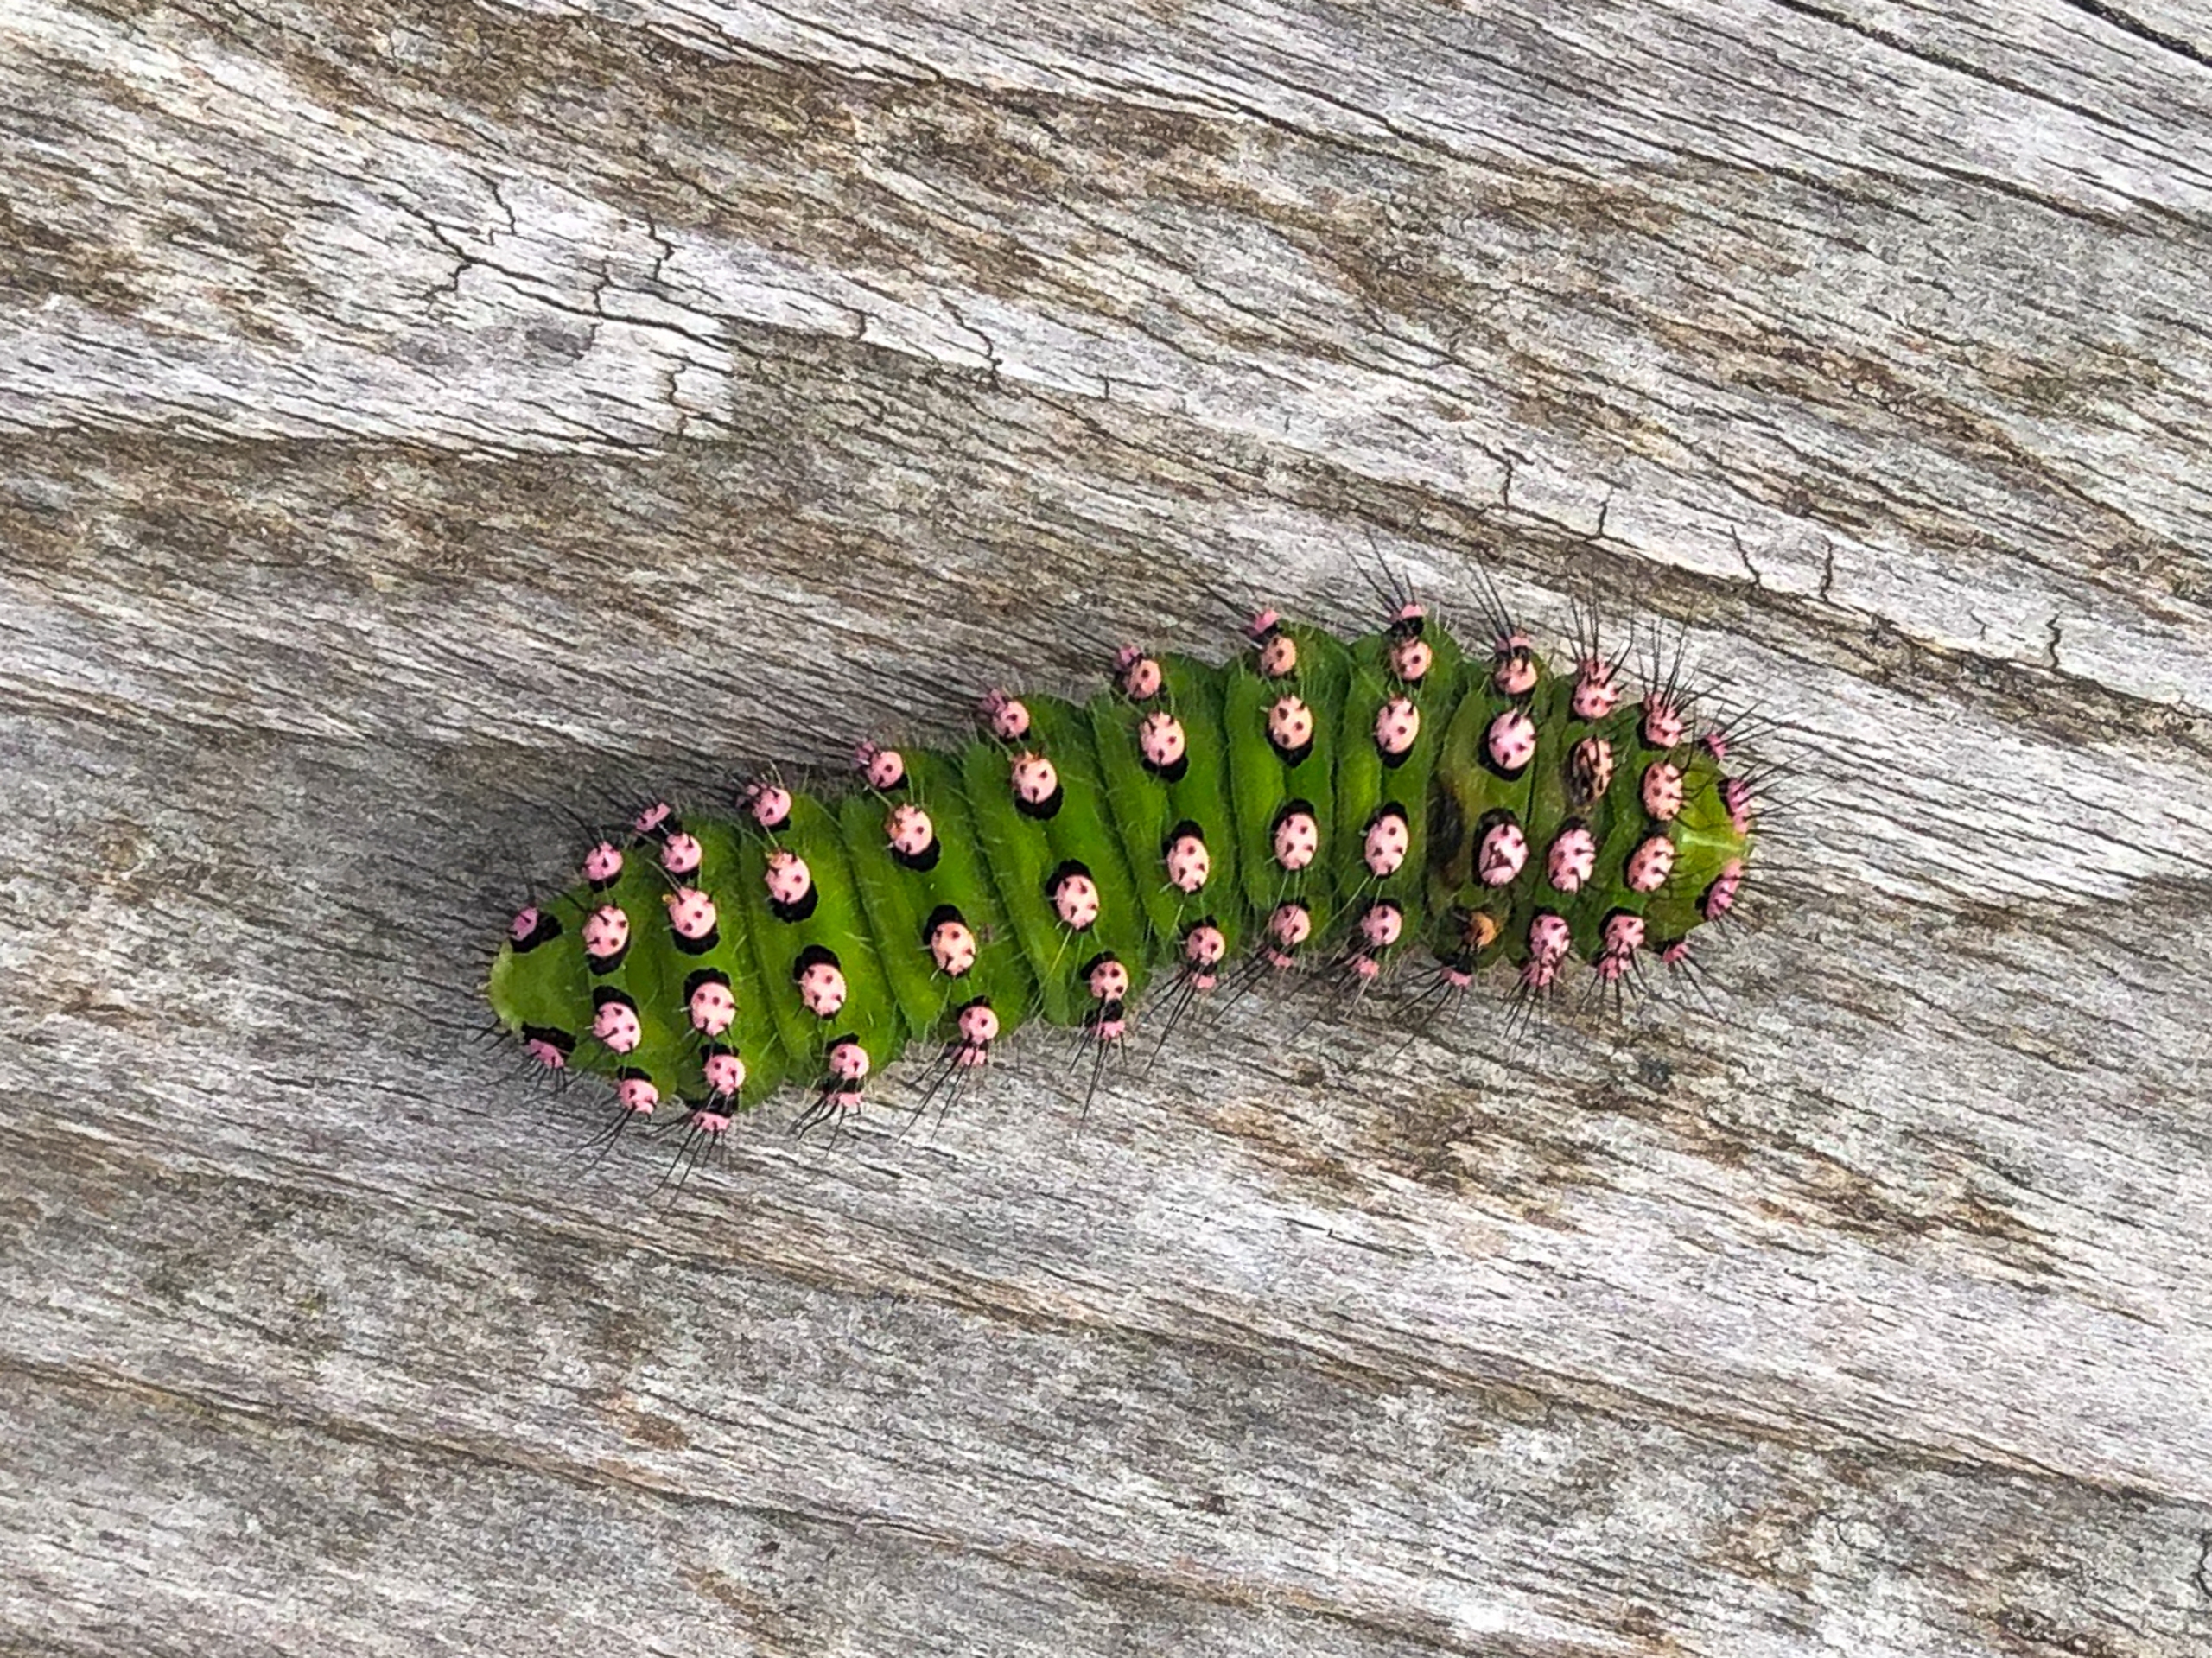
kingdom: Animalia
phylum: Arthropoda
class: Insecta
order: Lepidoptera
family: Saturniidae
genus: Saturnia
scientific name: Saturnia pavonia
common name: Lille natpåfugleøje
